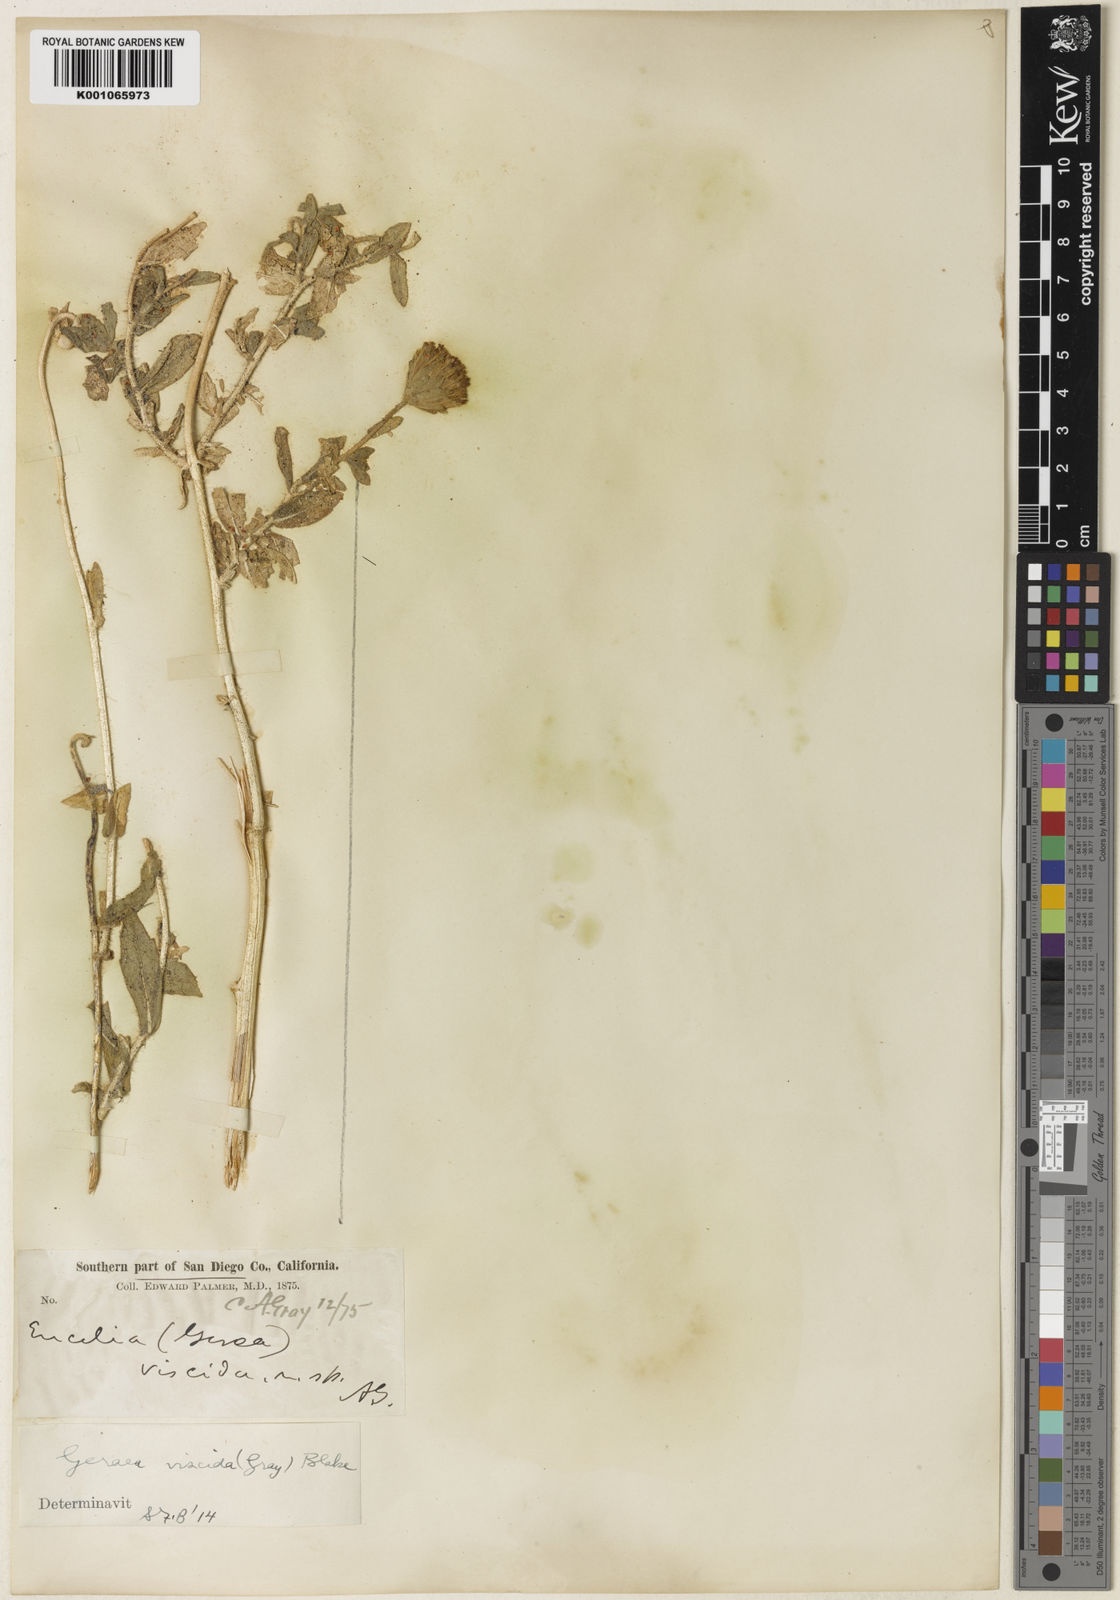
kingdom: Plantae
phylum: Tracheophyta
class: Magnoliopsida
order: Asterales
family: Asteraceae
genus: Geraea
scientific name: Geraea viscida
